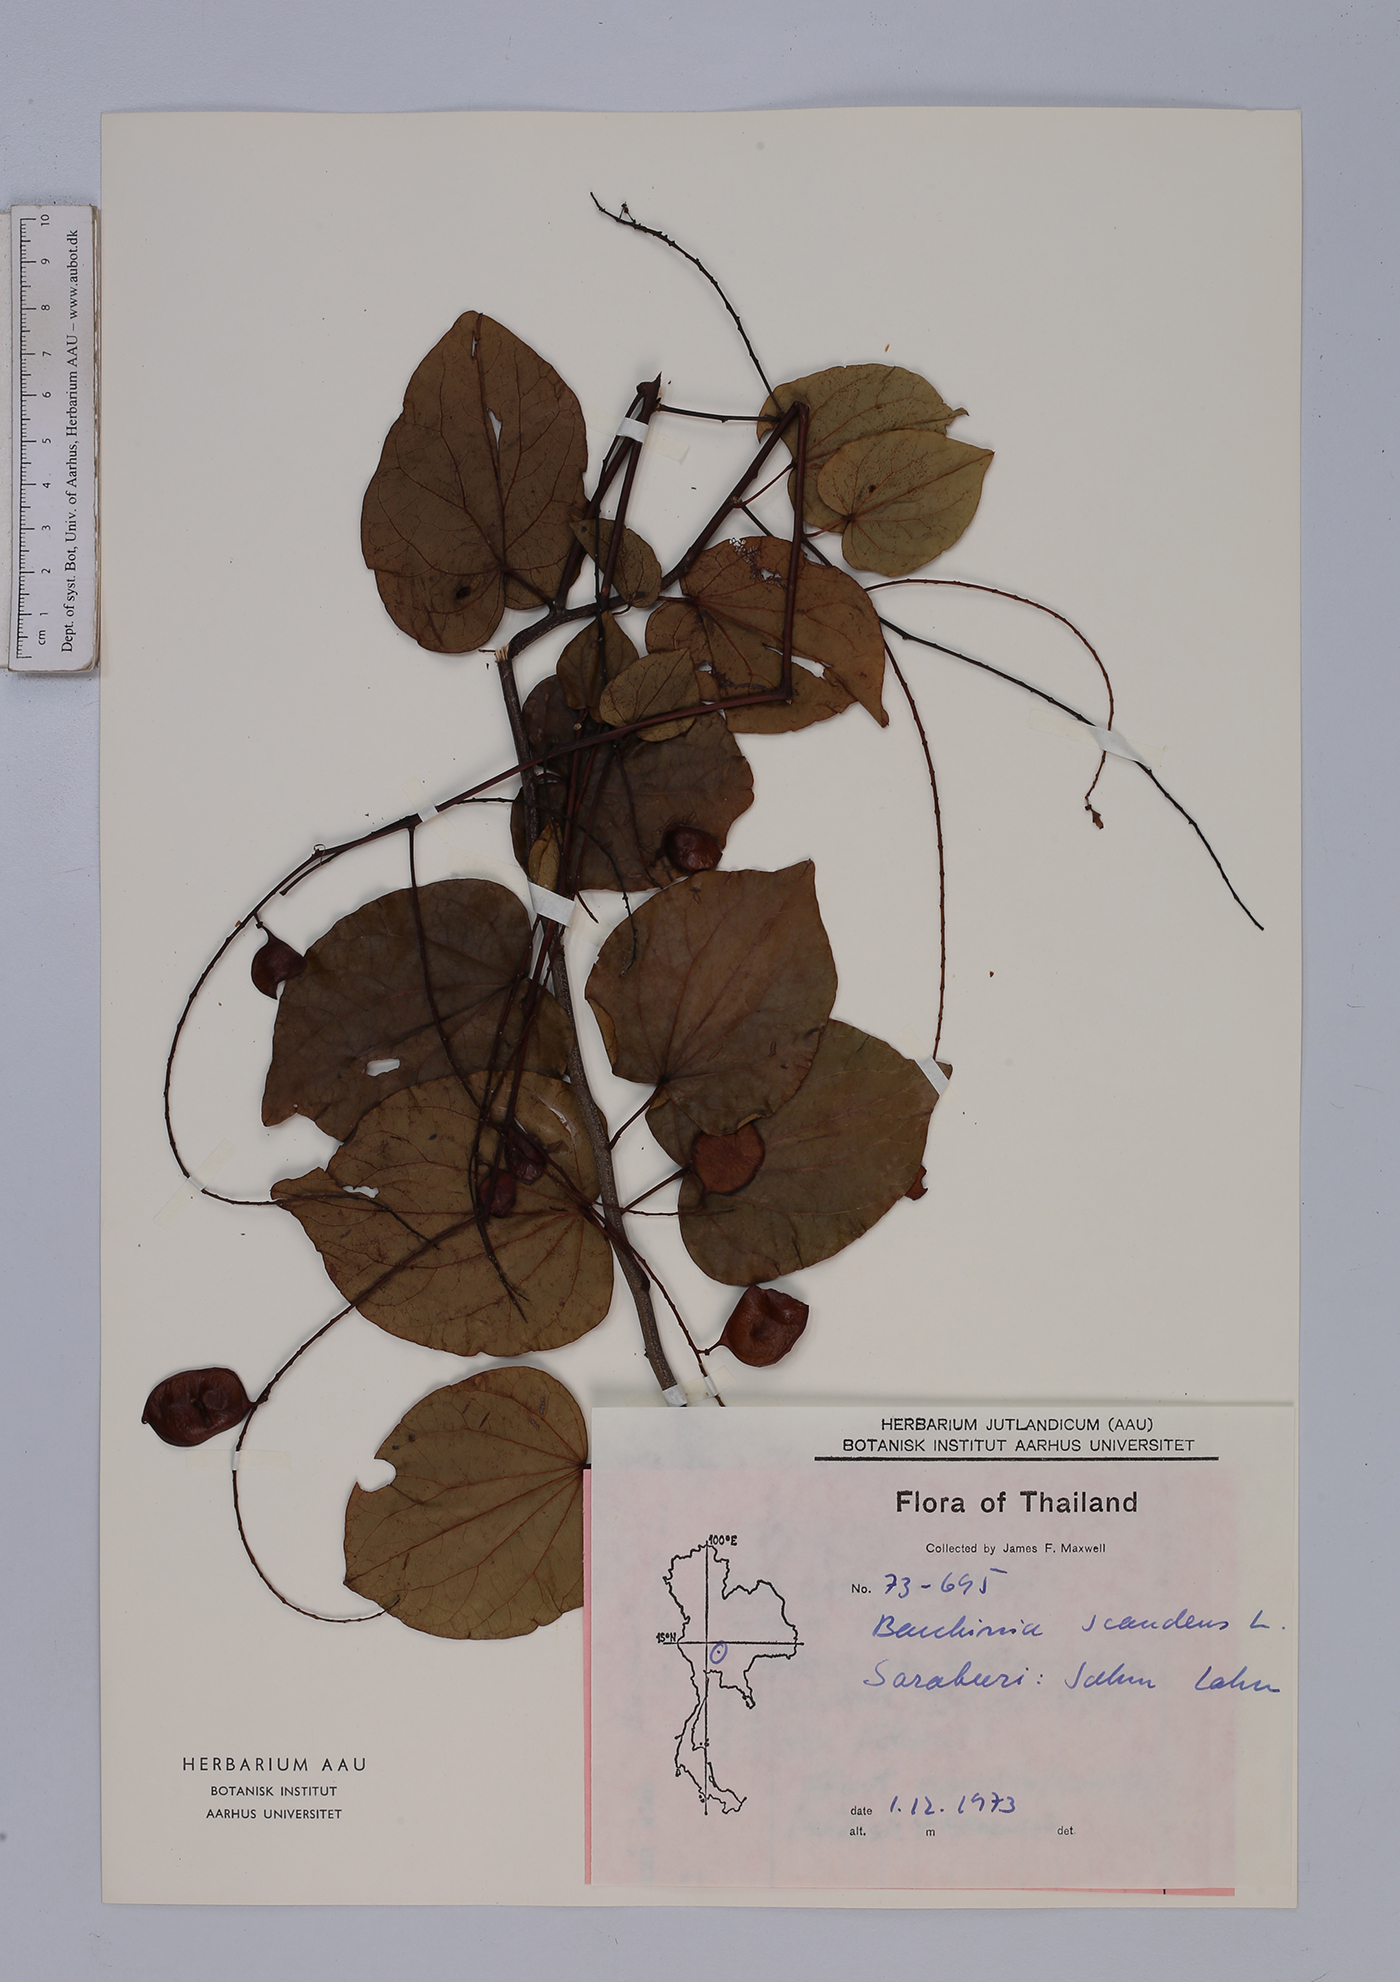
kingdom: Plantae
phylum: Tracheophyta
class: Magnoliopsida
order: Fabales
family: Fabaceae
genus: Phanera
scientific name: Phanera scandens
